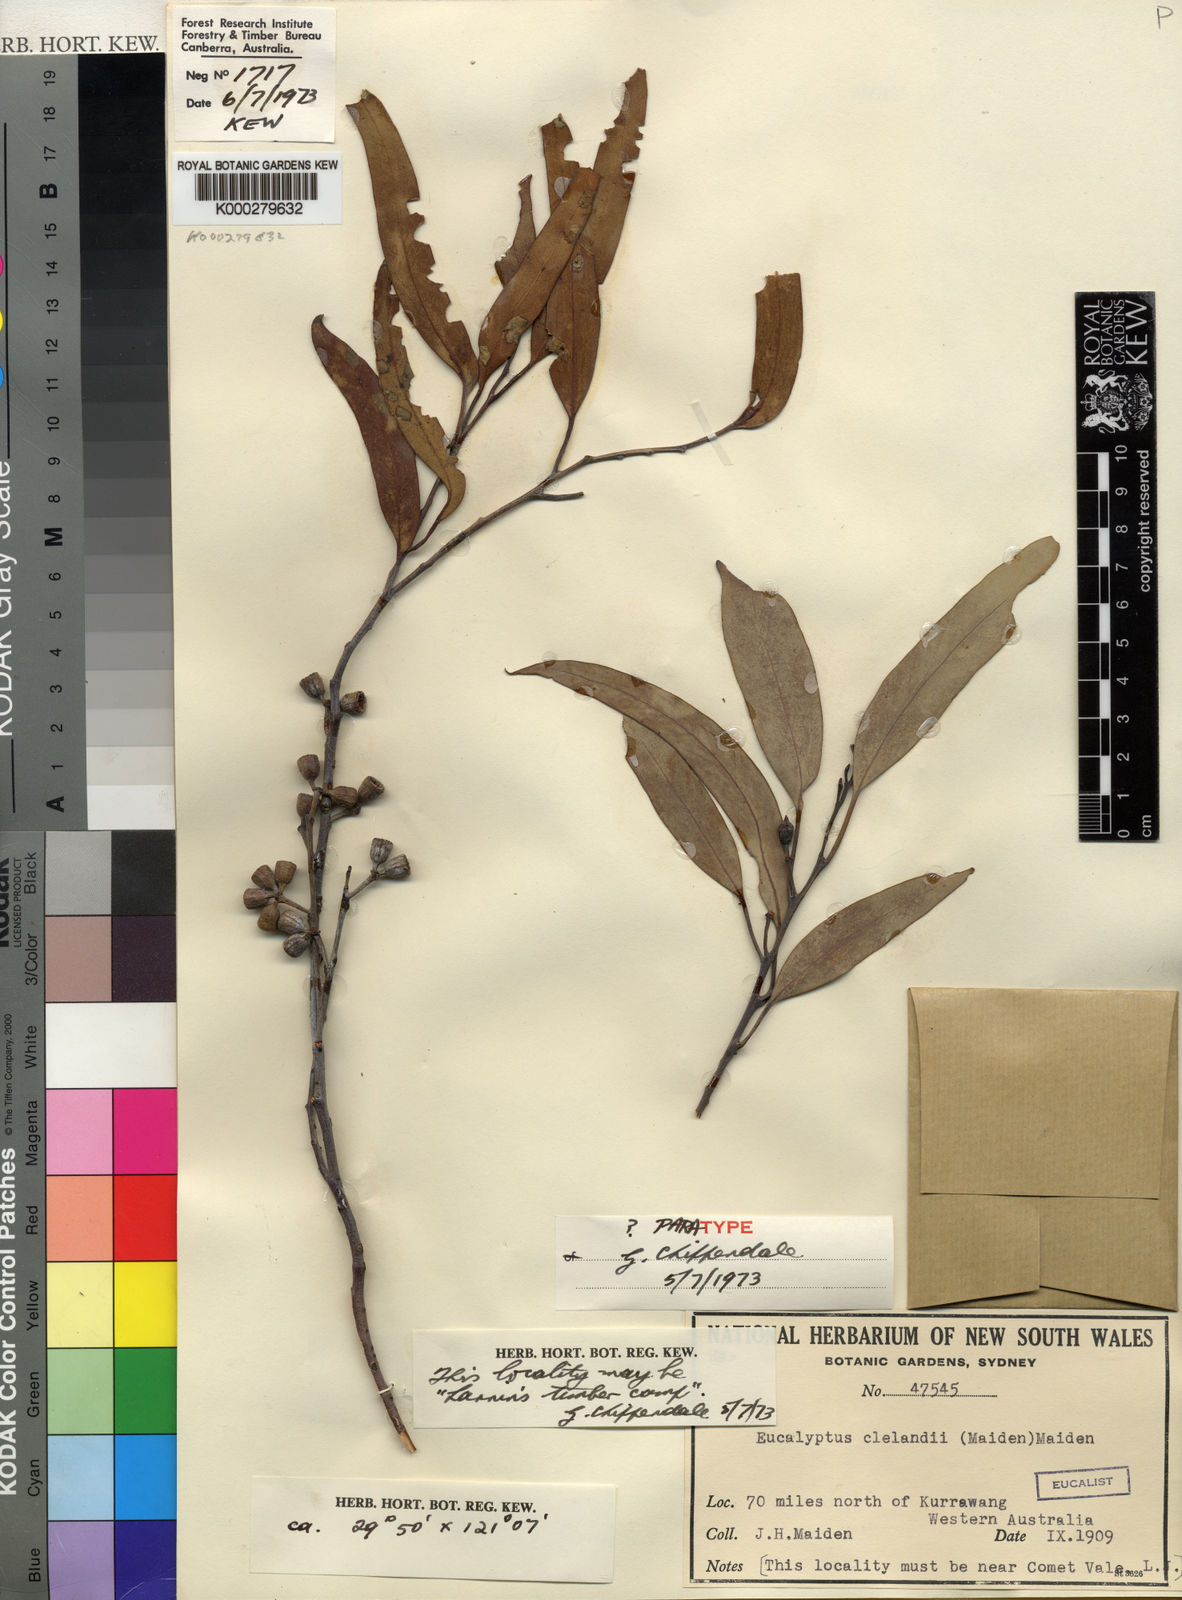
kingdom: Plantae
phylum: Tracheophyta
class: Magnoliopsida
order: Myrtales
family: Myrtaceae
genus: Eucalyptus
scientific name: Eucalyptus clelandiorum
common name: Cleland's blackbutt
